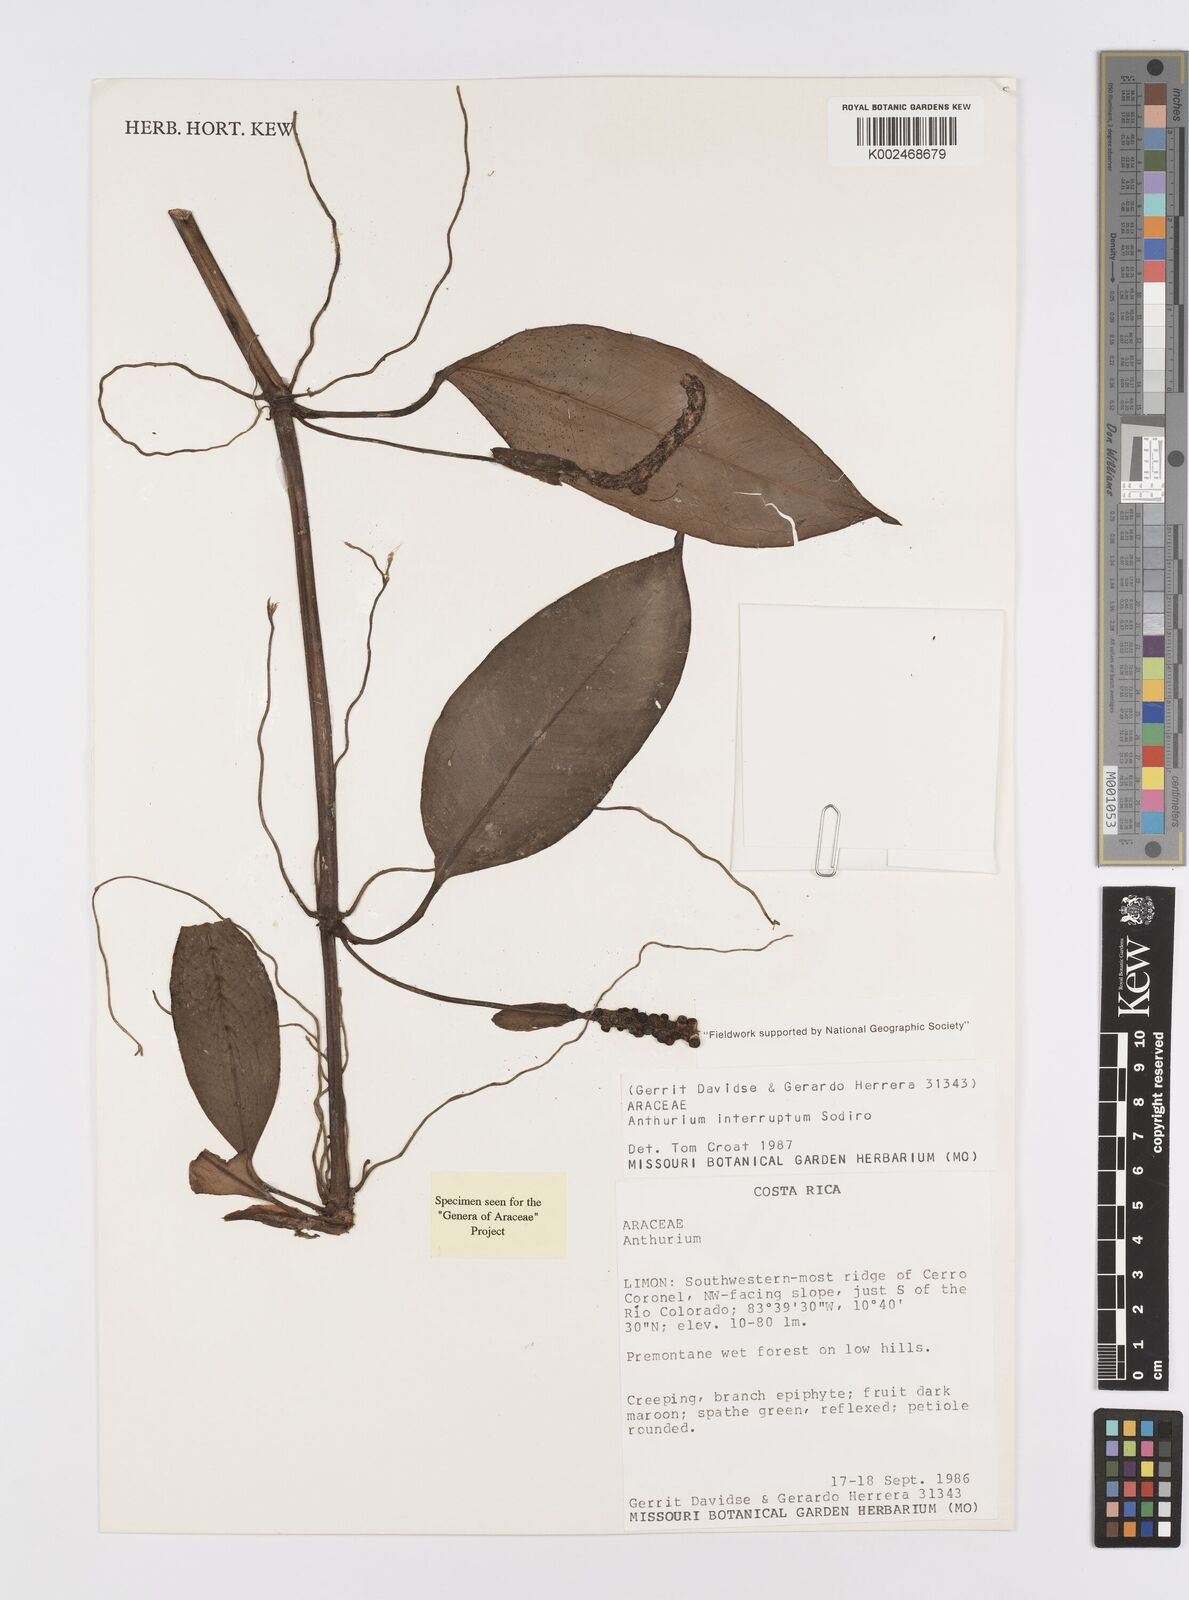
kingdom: Plantae
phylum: Tracheophyta
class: Liliopsida
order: Alismatales
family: Araceae
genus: Anthurium
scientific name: Anthurium interruptum
